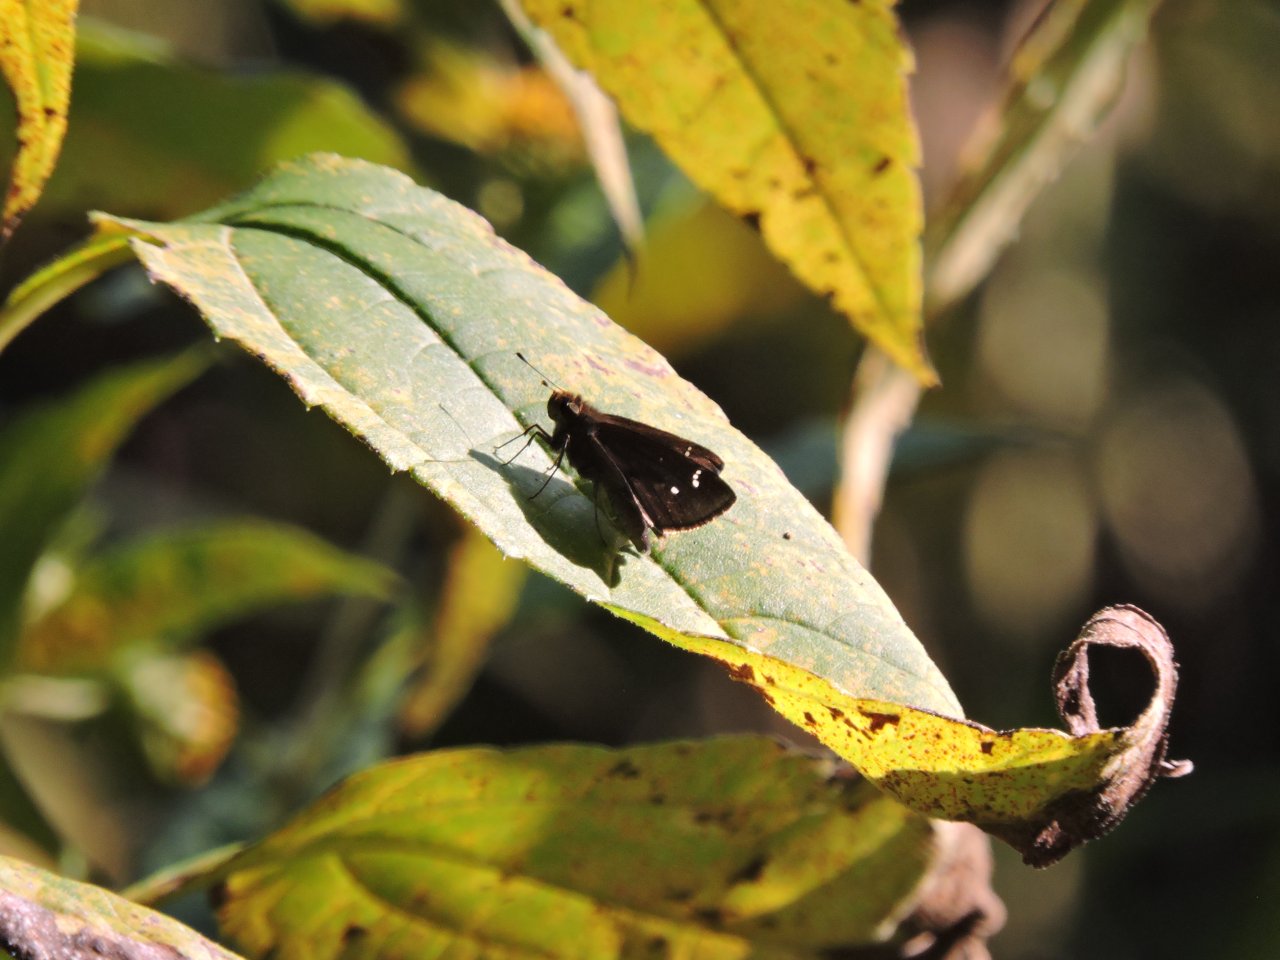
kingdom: Animalia
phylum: Arthropoda
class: Insecta
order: Lepidoptera
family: Hesperiidae
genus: Lerema
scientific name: Lerema accius
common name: Clouded Skipper
